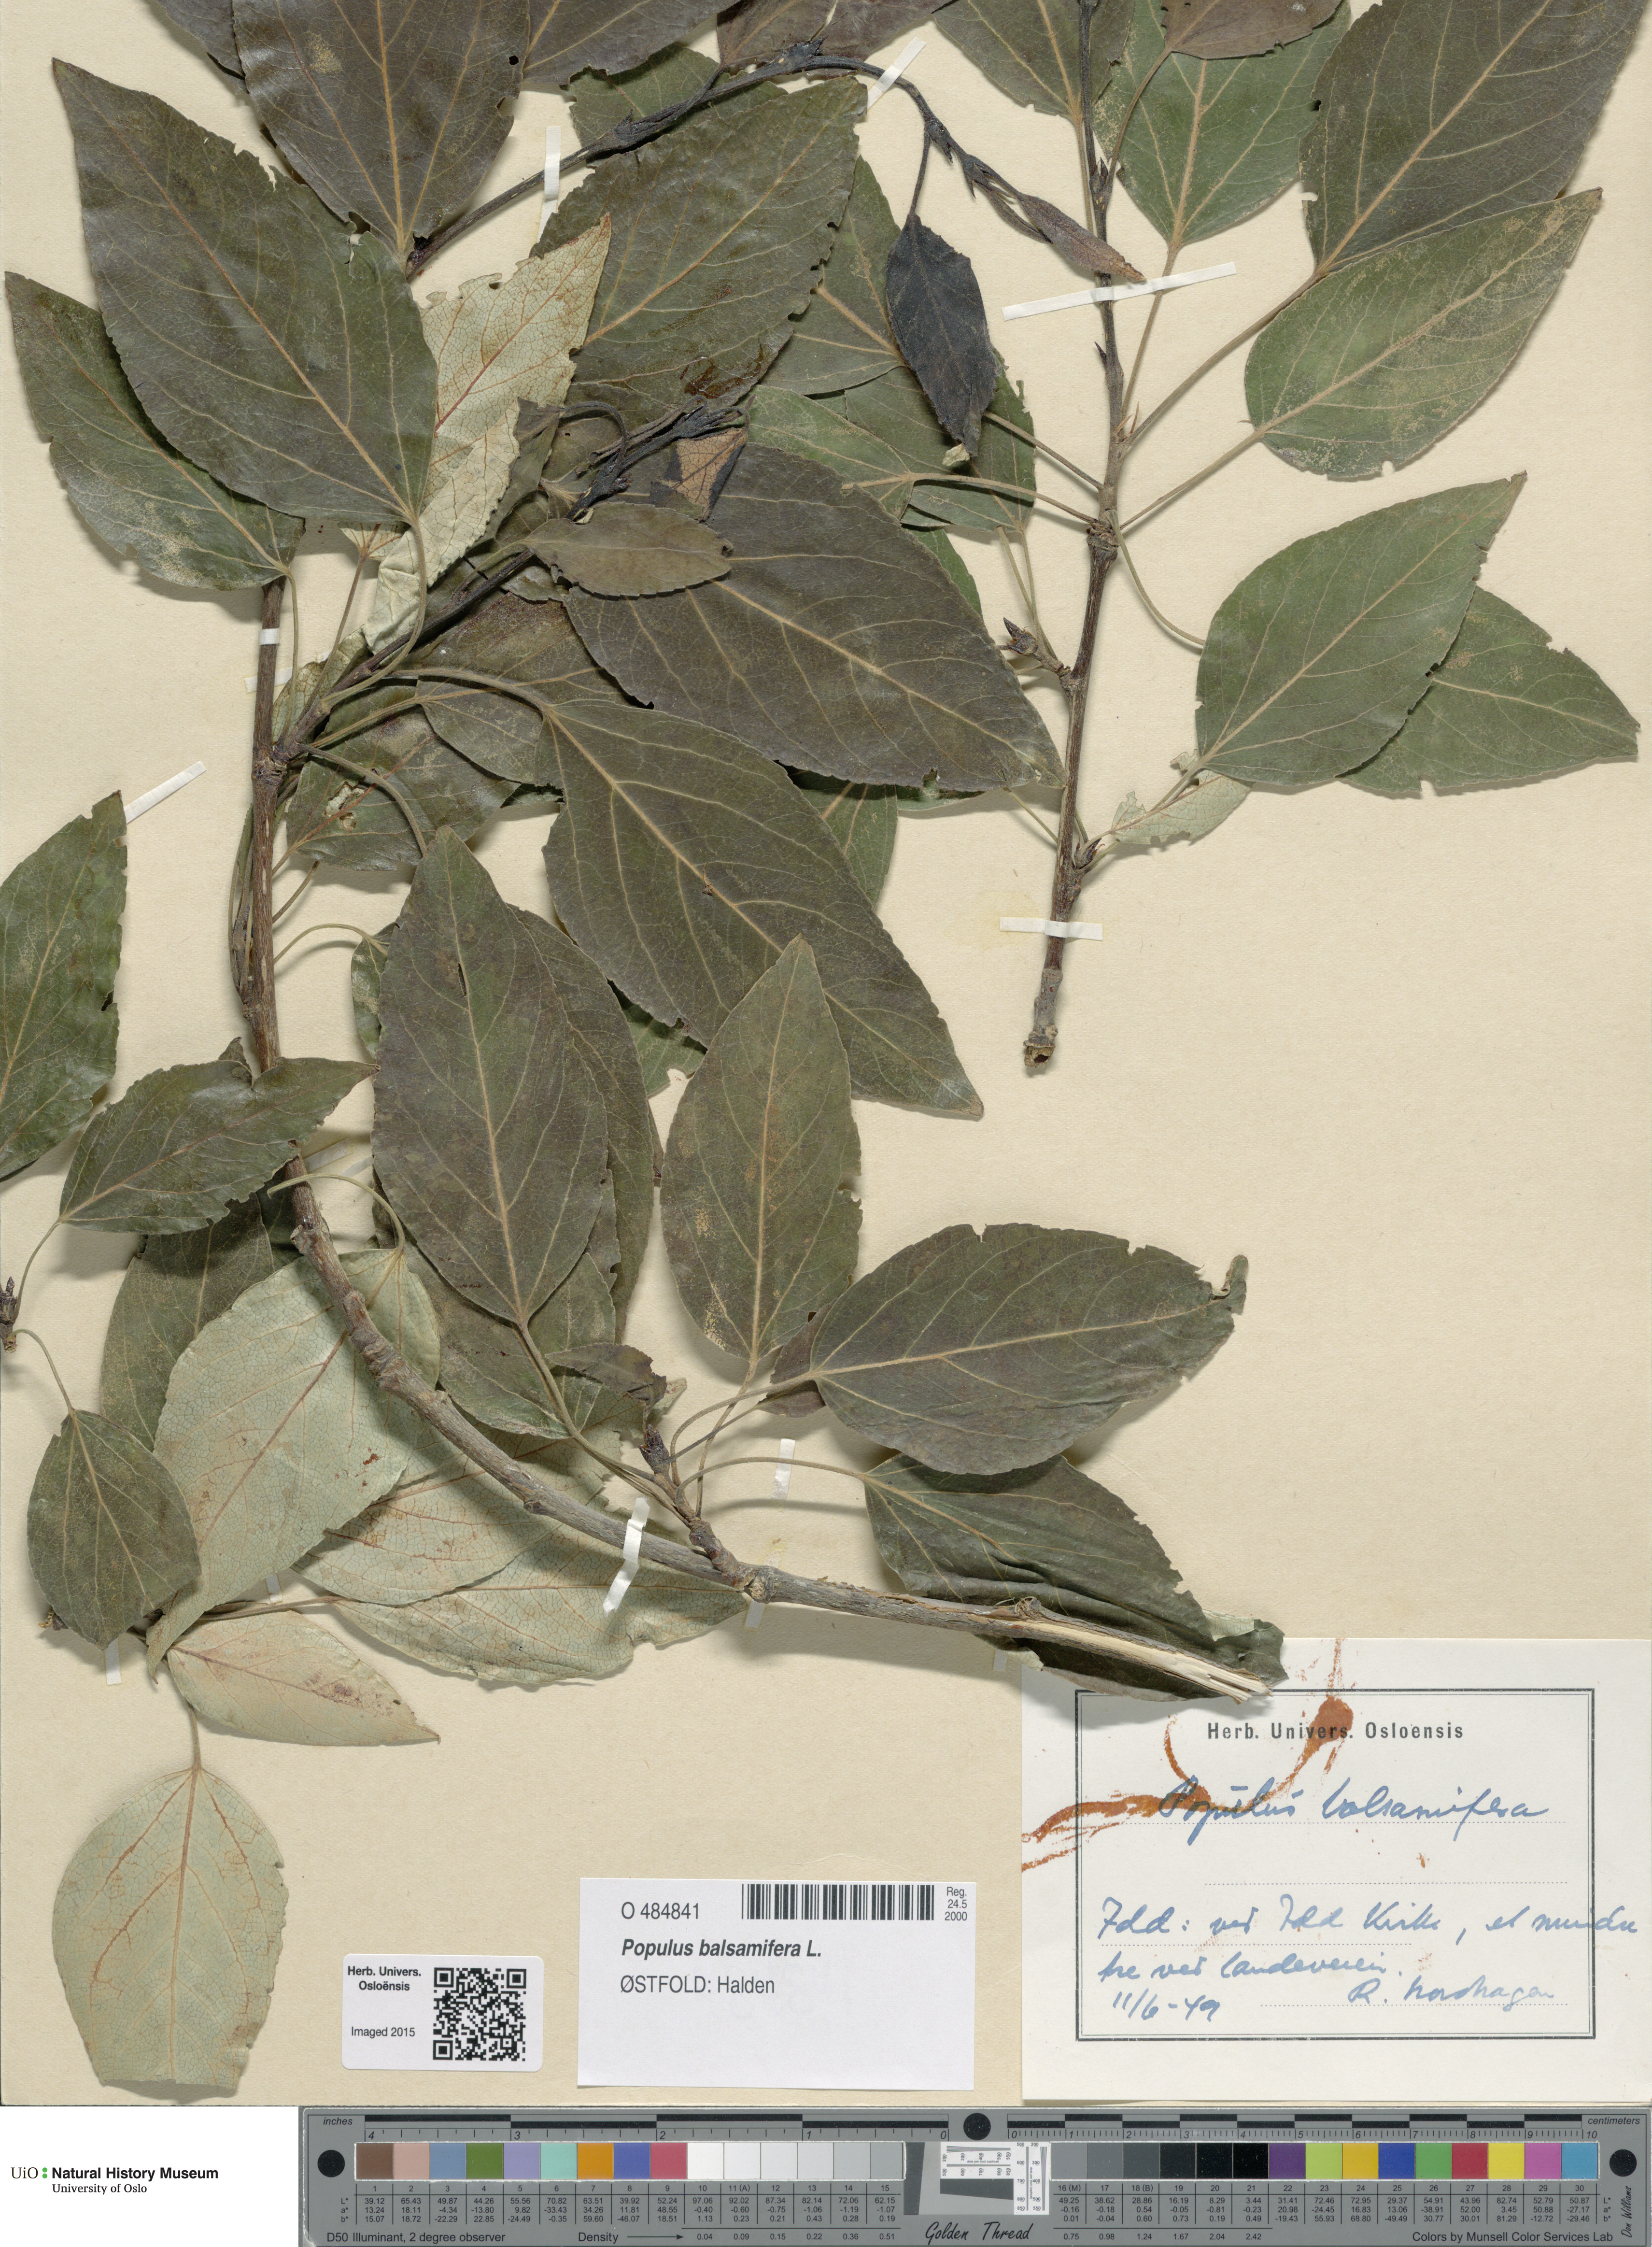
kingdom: Plantae
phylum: Tracheophyta
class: Magnoliopsida
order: Malpighiales
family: Salicaceae
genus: Populus
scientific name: Populus balsamifera
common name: Balsam poplar
